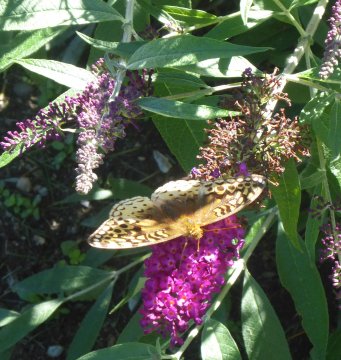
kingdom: Animalia
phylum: Arthropoda
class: Insecta
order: Lepidoptera
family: Nymphalidae
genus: Speyeria
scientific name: Speyeria cybele
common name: Great Spangled Fritillary
